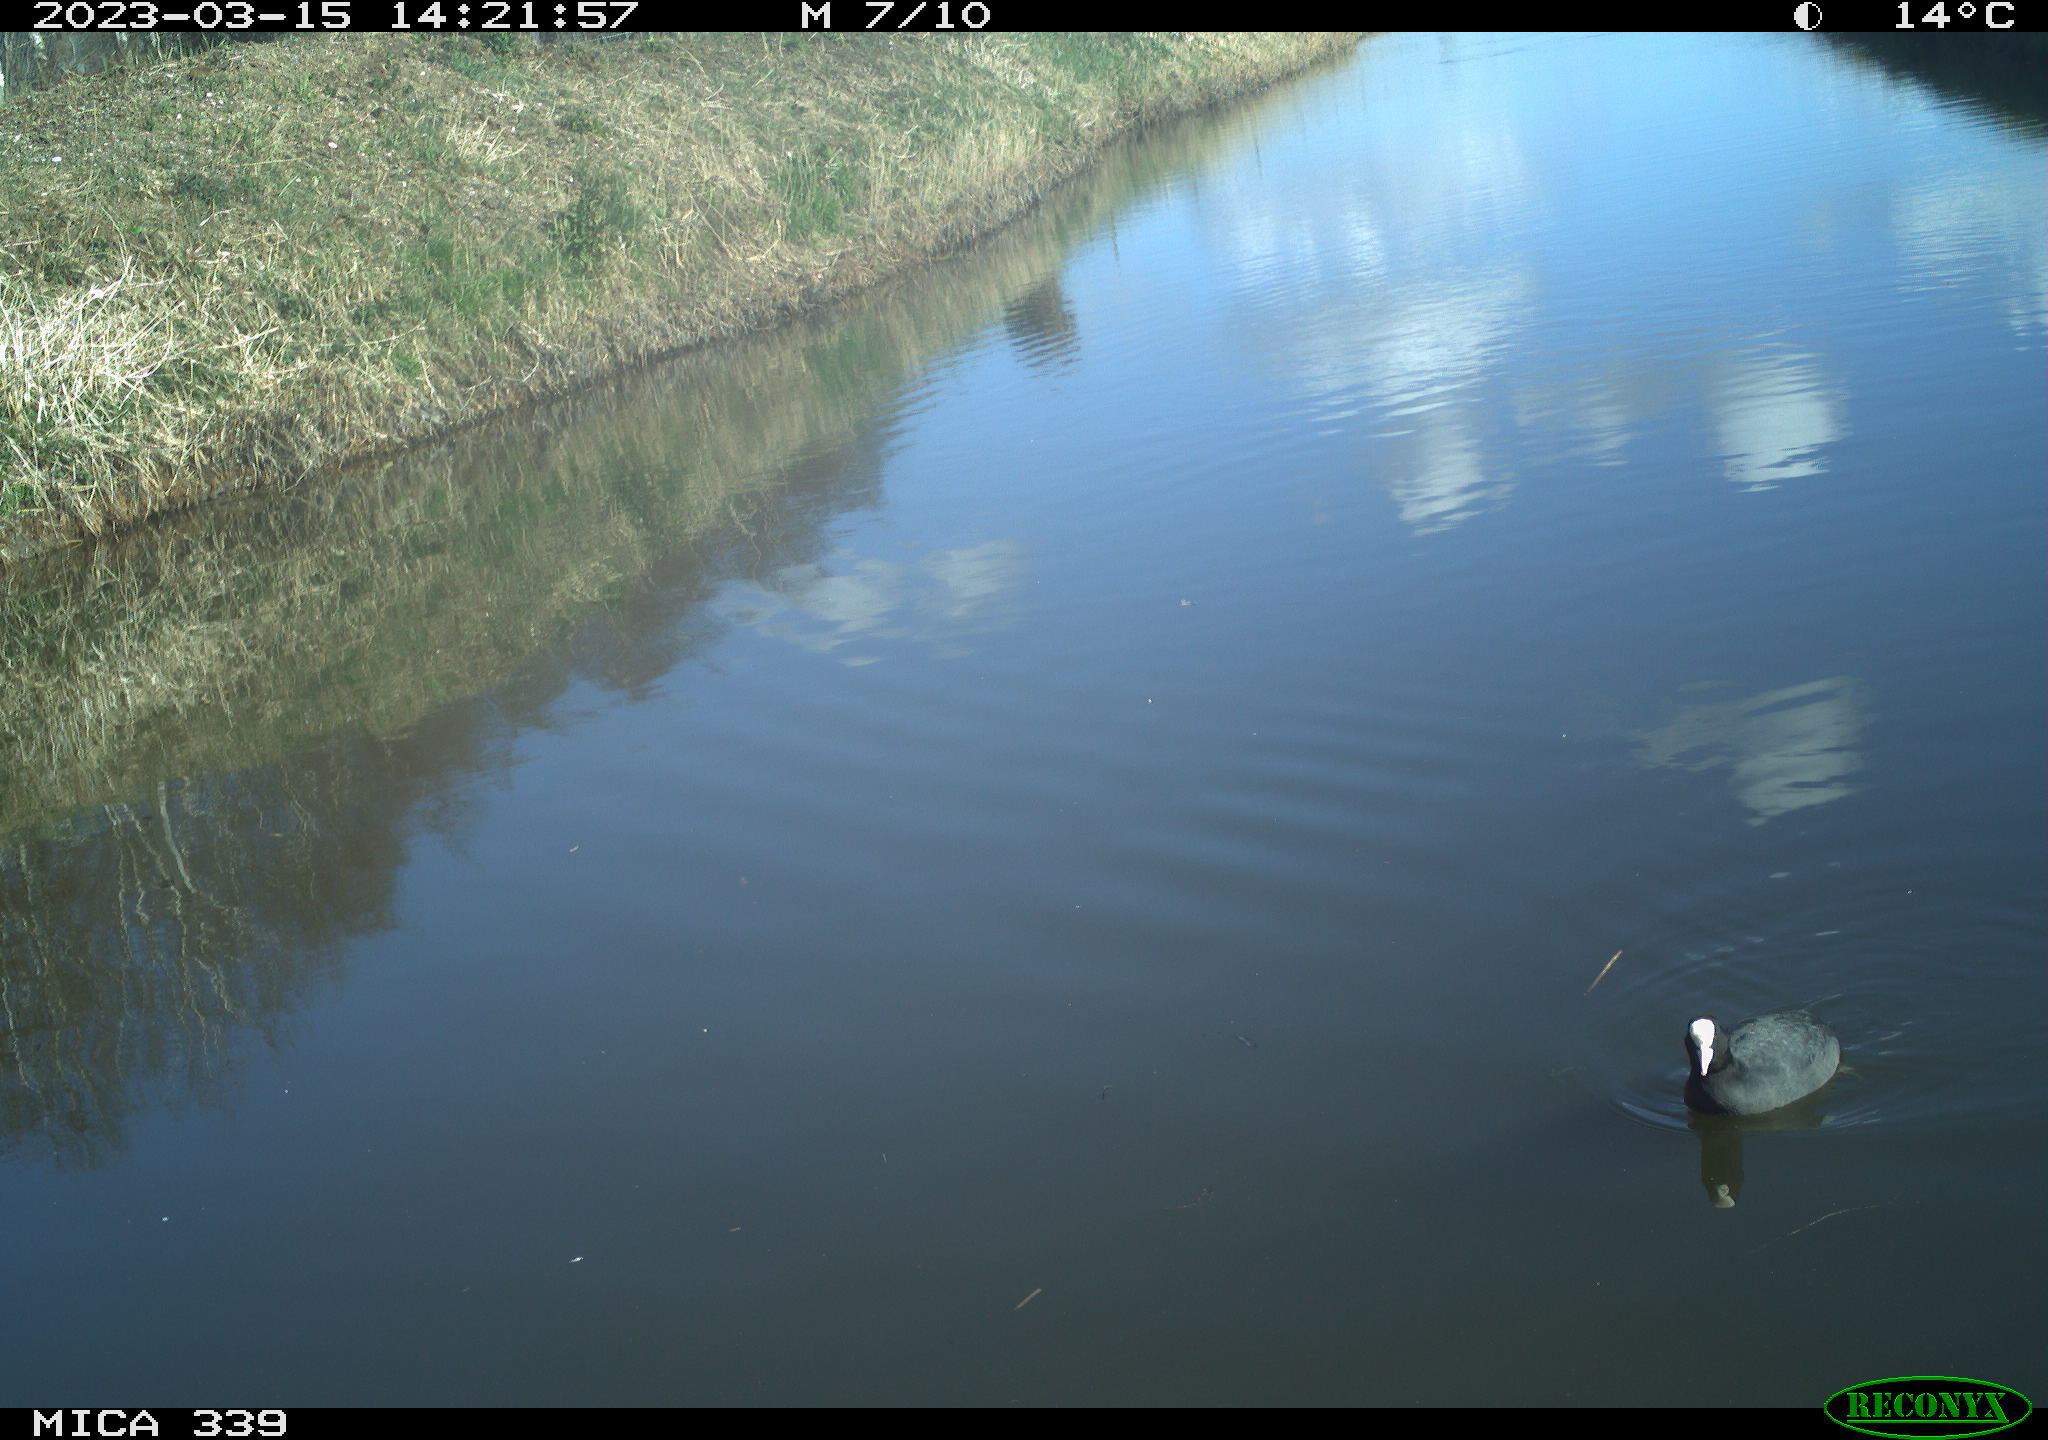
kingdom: Animalia
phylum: Chordata
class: Aves
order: Suliformes
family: Phalacrocoracidae
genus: Phalacrocorax
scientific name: Phalacrocorax carbo
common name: Great cormorant
